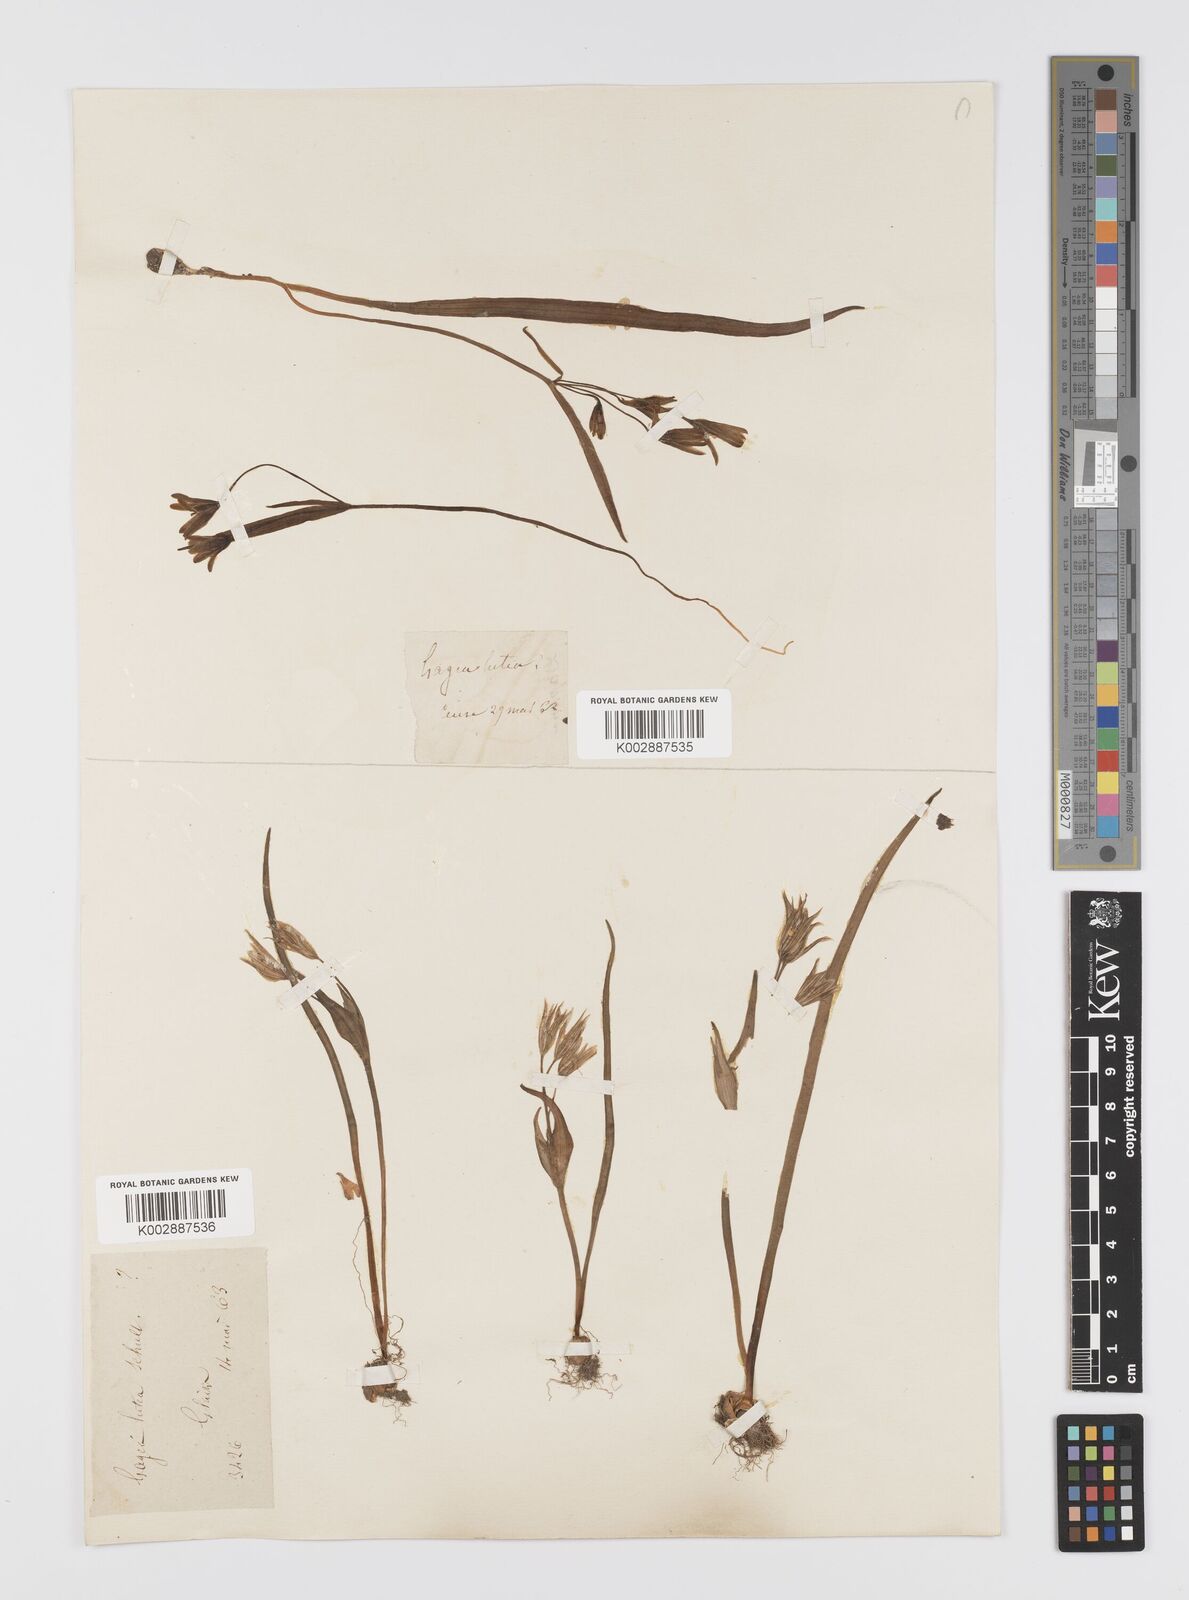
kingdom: Plantae
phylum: Tracheophyta
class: Liliopsida
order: Liliales
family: Liliaceae
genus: Gagea
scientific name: Gagea lutea
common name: Yellow star-of-bethlehem
